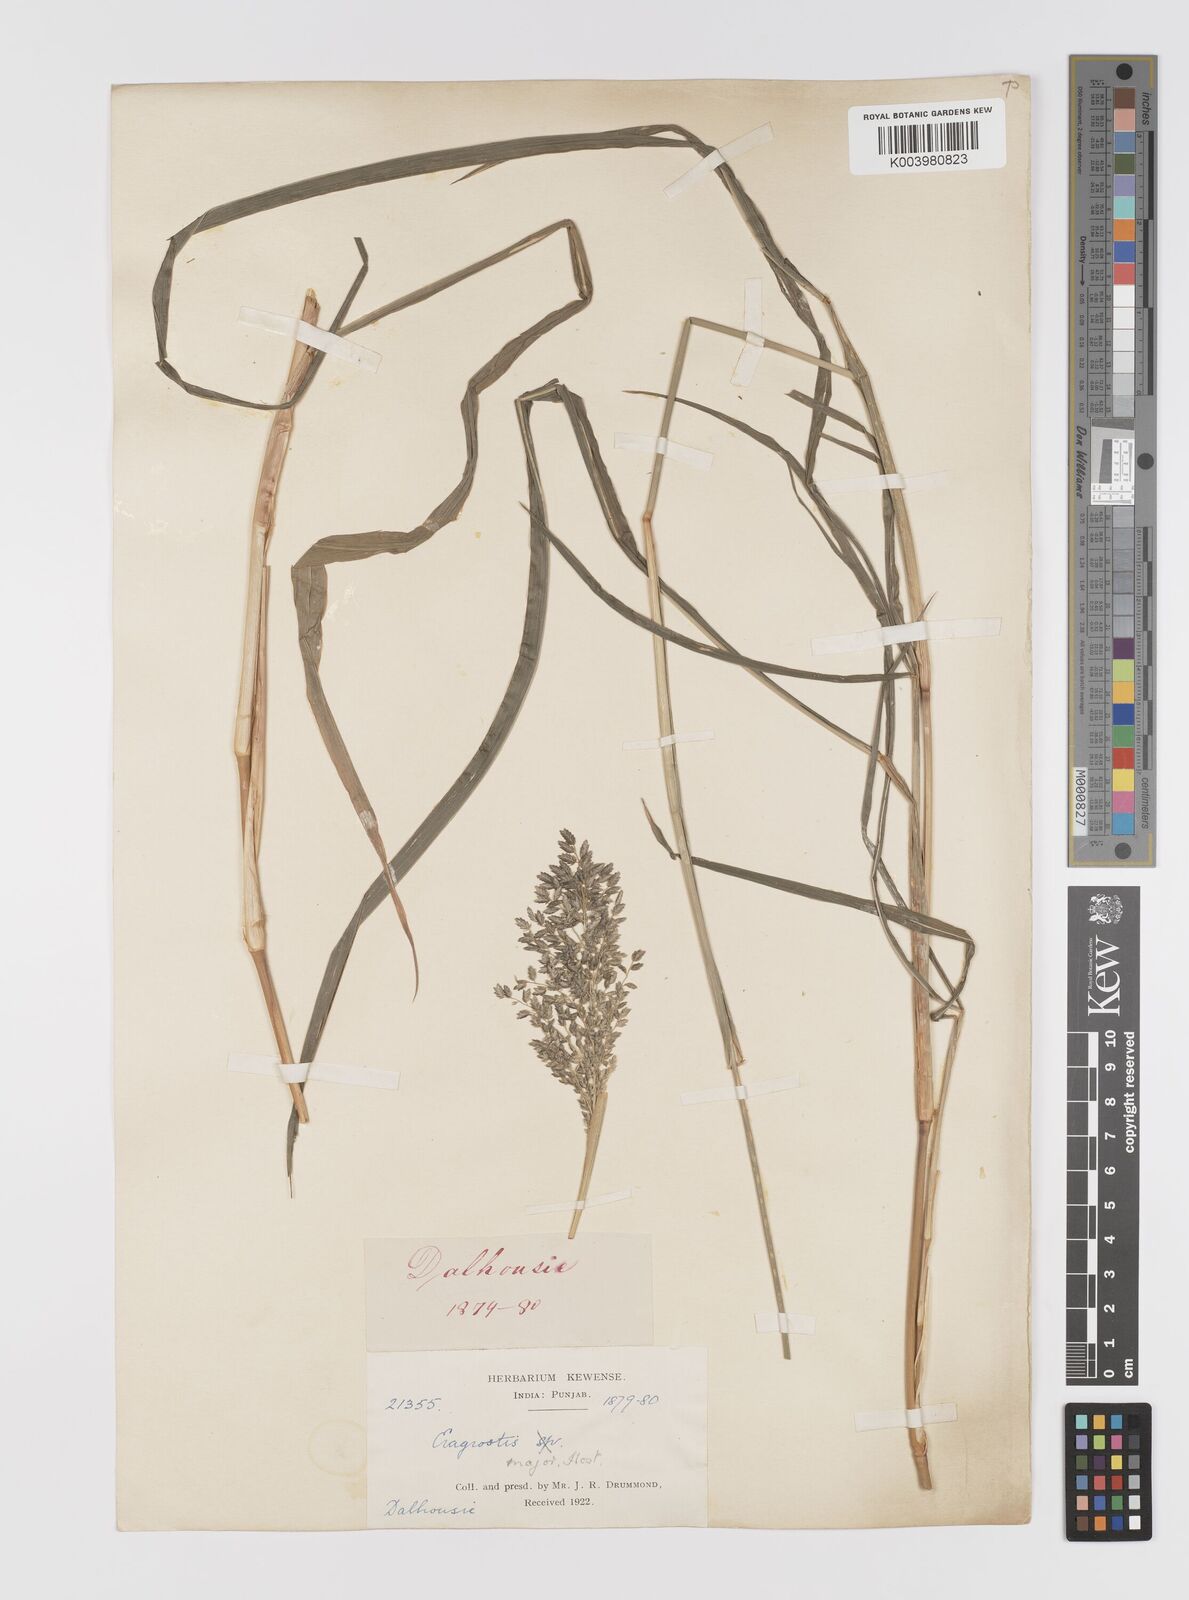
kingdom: Plantae
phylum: Tracheophyta
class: Liliopsida
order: Poales
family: Poaceae
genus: Eragrostis
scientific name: Eragrostis cilianensis
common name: Stinkgrass
